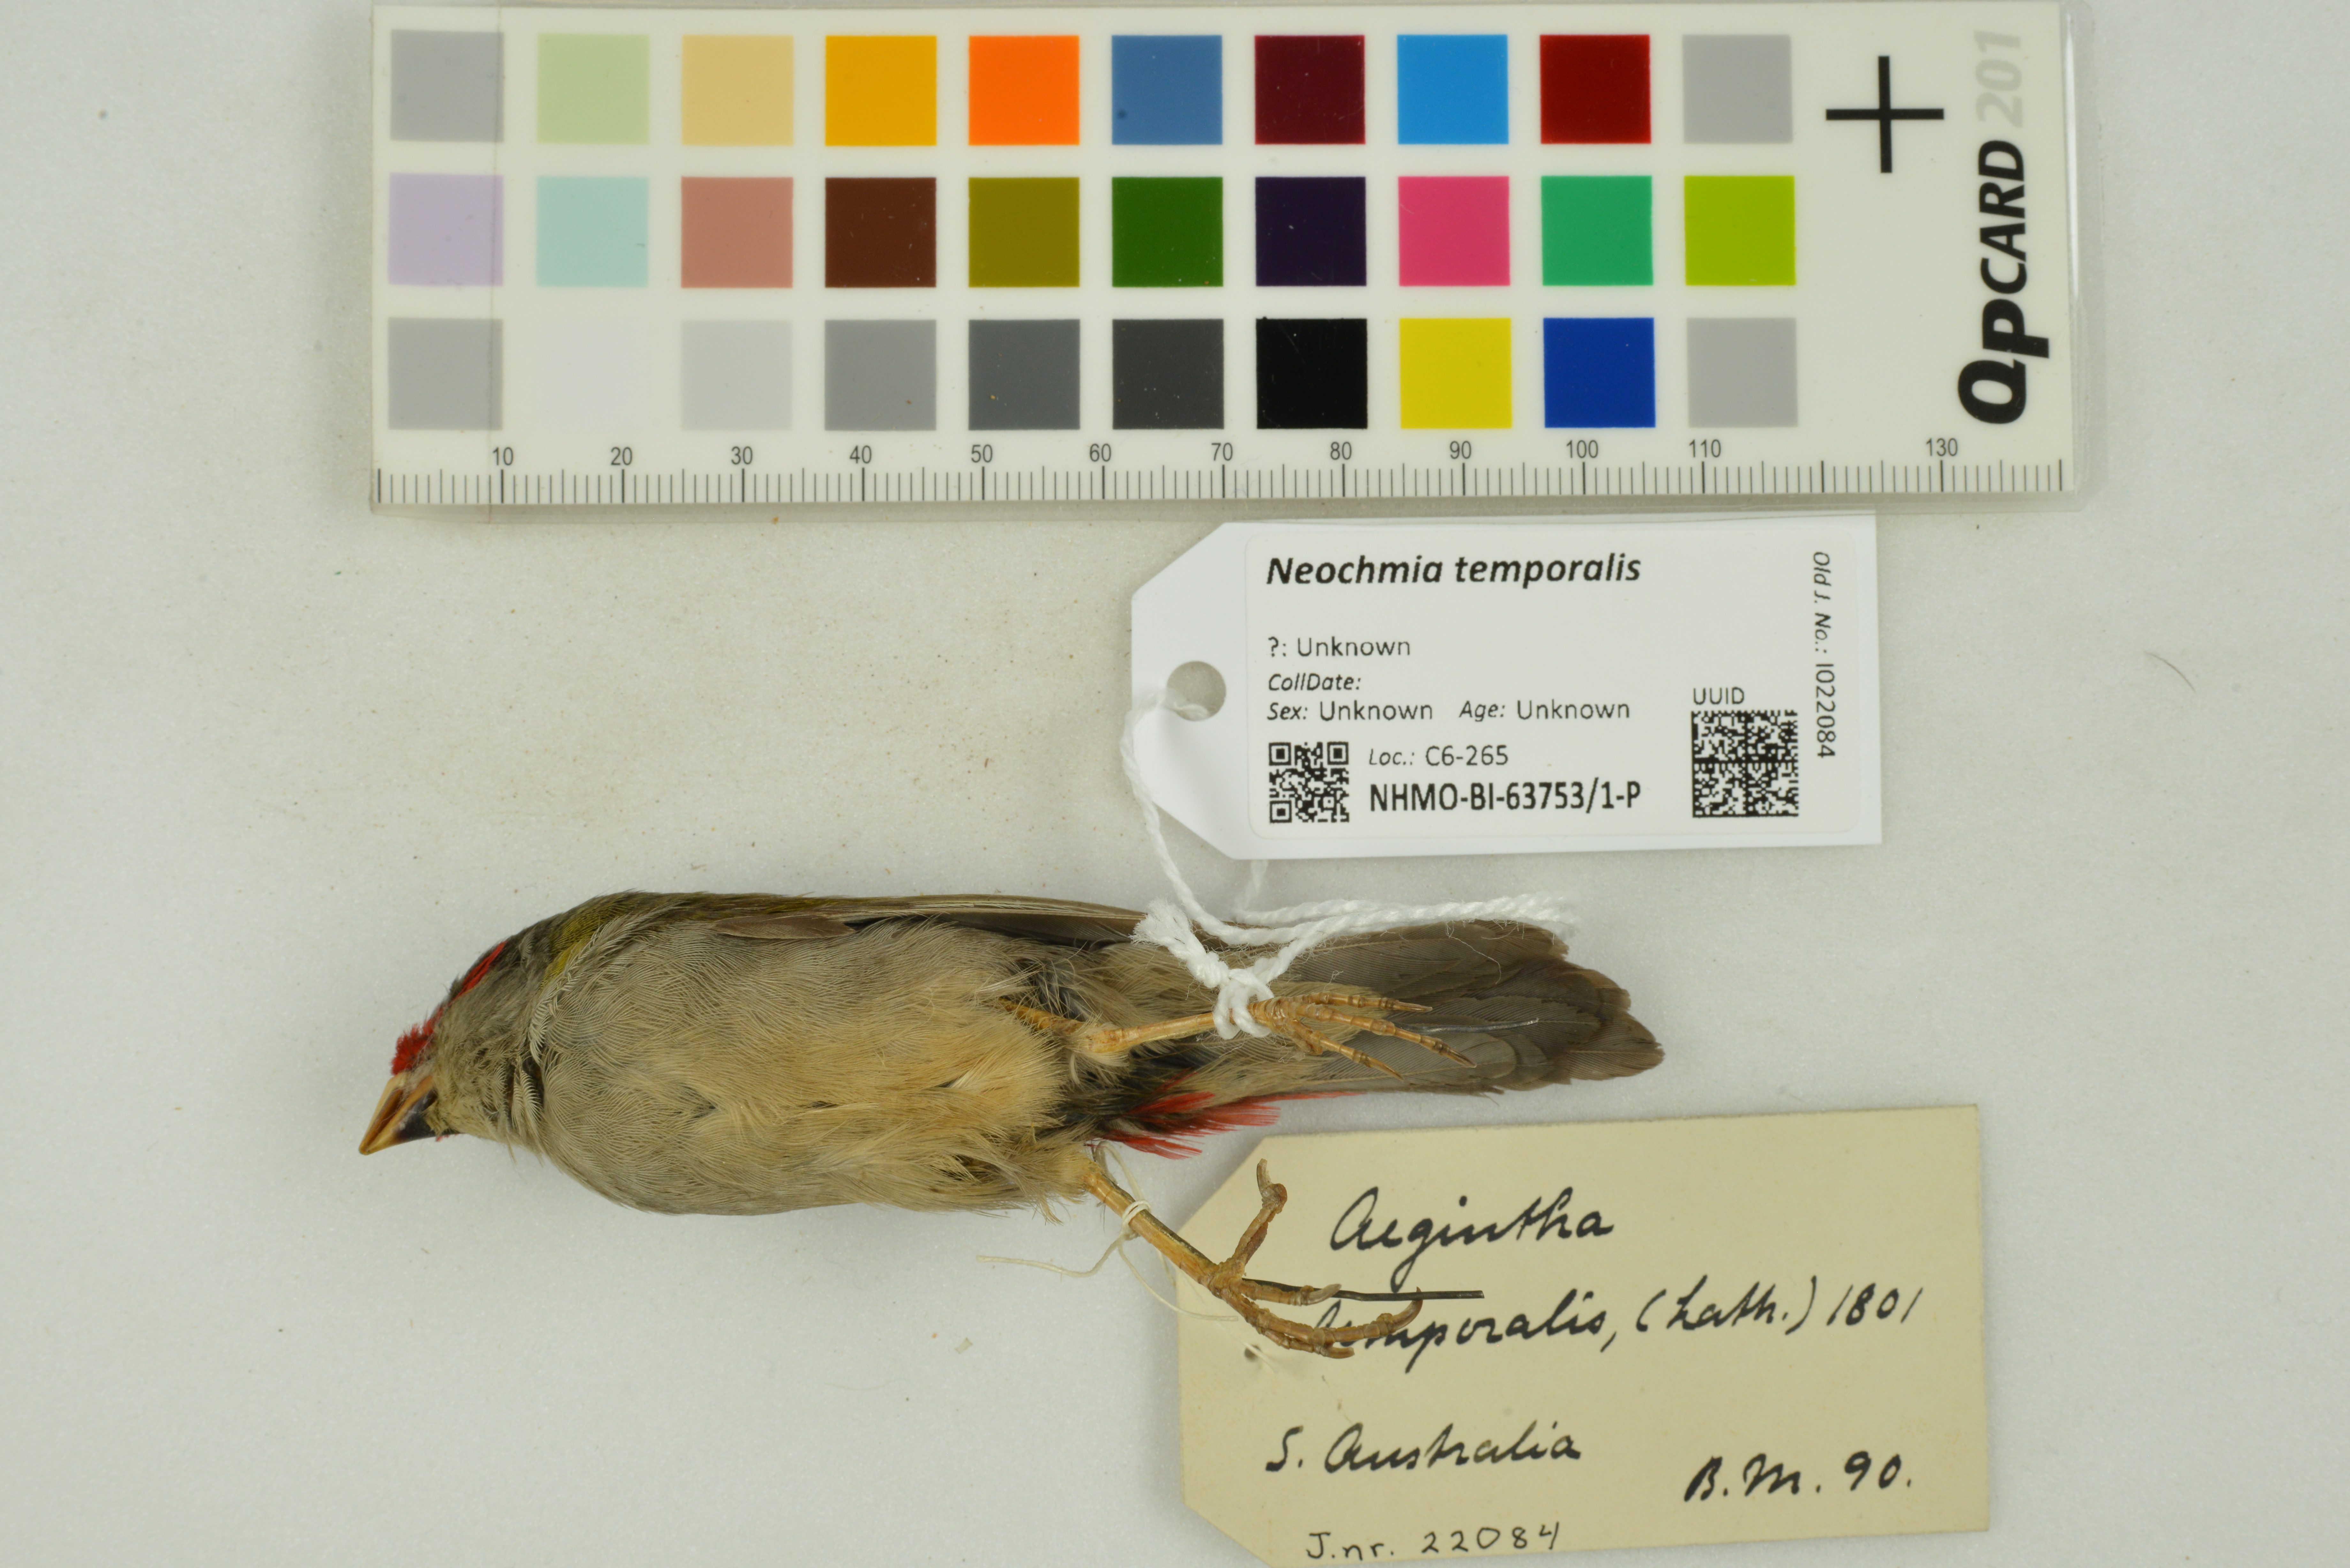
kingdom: Animalia
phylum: Chordata
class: Aves
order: Passeriformes
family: Estrildidae
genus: Neochmia
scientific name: Neochmia temporalis
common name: Red-browed finch
